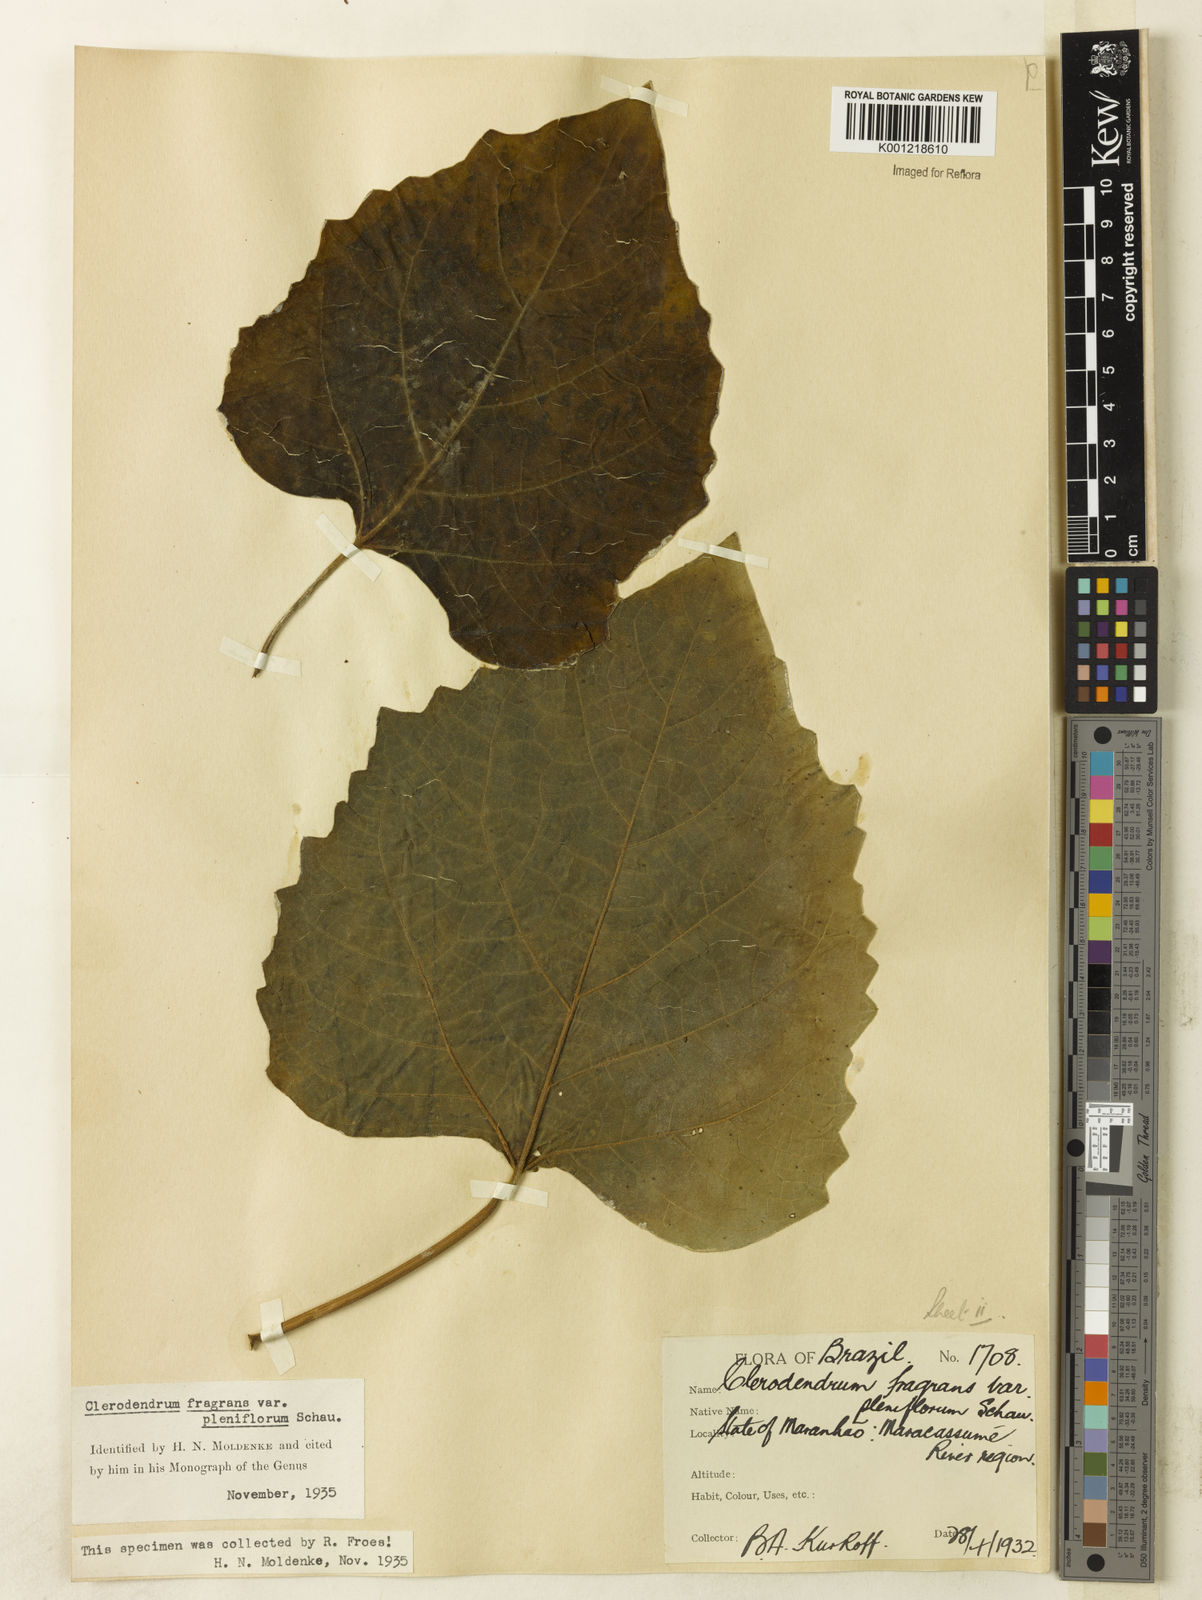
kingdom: Plantae
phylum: Tracheophyta
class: Magnoliopsida
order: Lamiales
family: Lamiaceae
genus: Clerodendrum
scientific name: Clerodendrum chinense
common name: Stickbush
